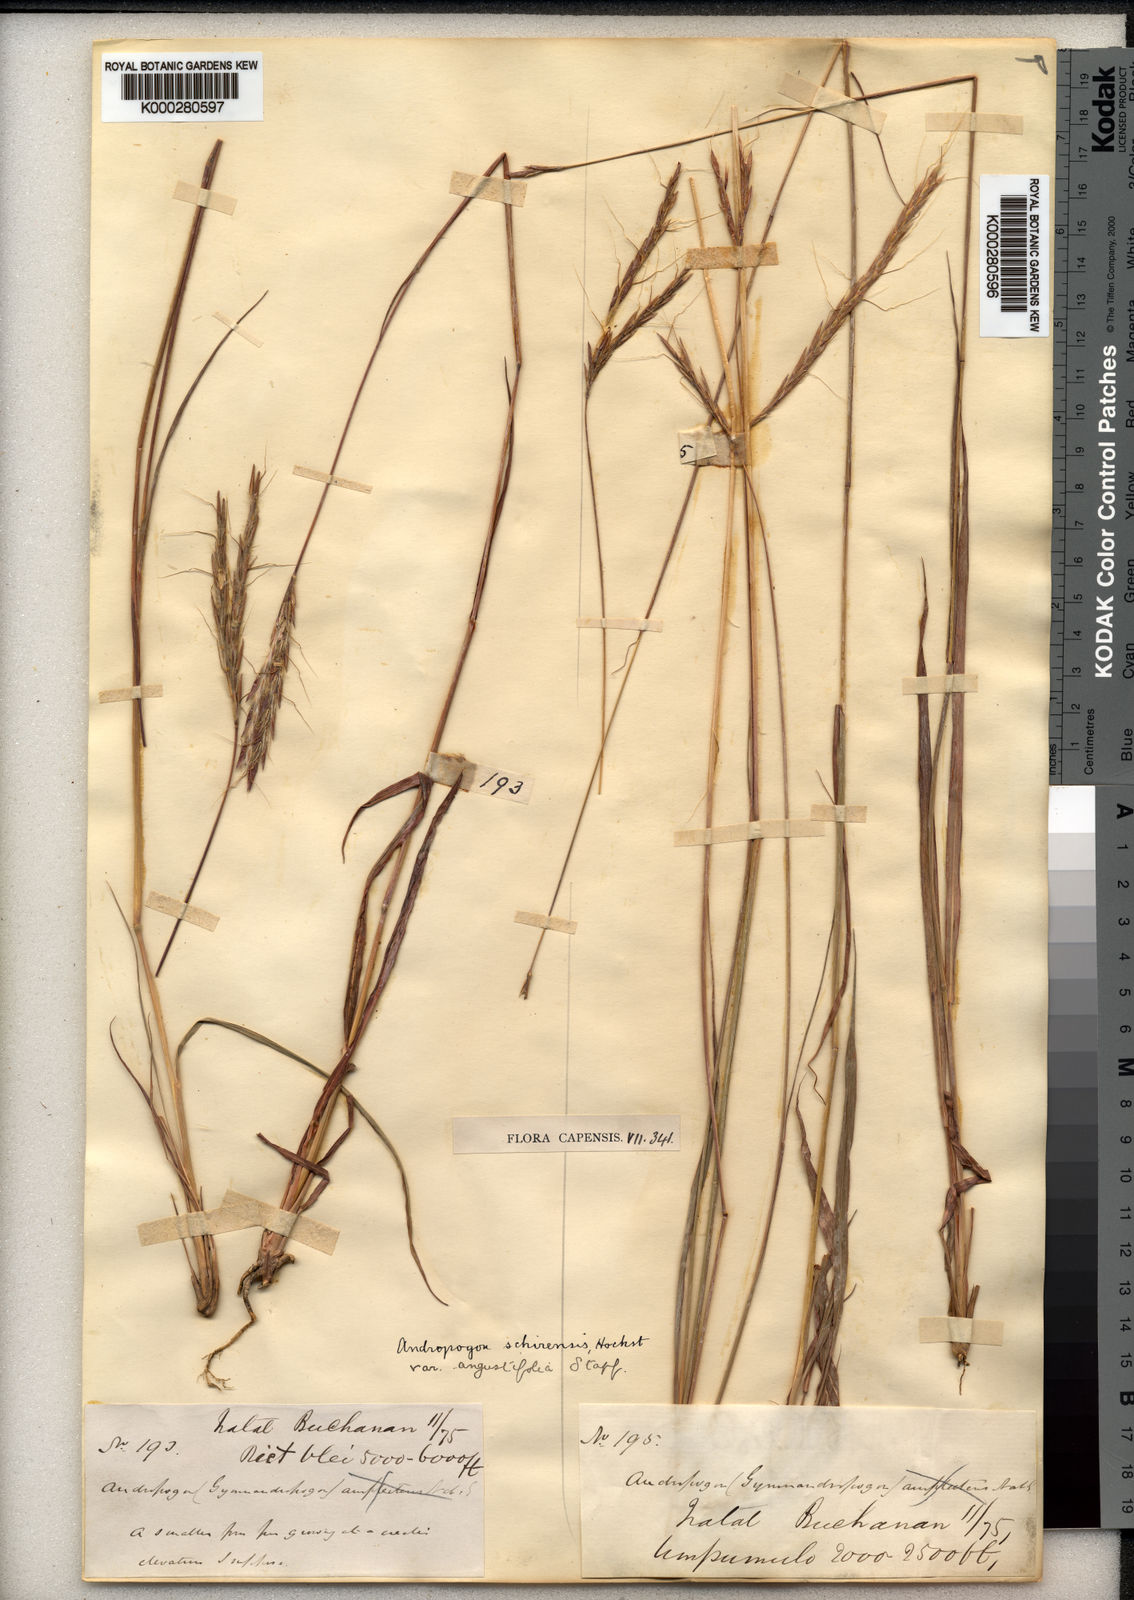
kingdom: Plantae
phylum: Tracheophyta
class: Liliopsida
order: Poales
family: Poaceae
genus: Andropogon
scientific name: Andropogon
